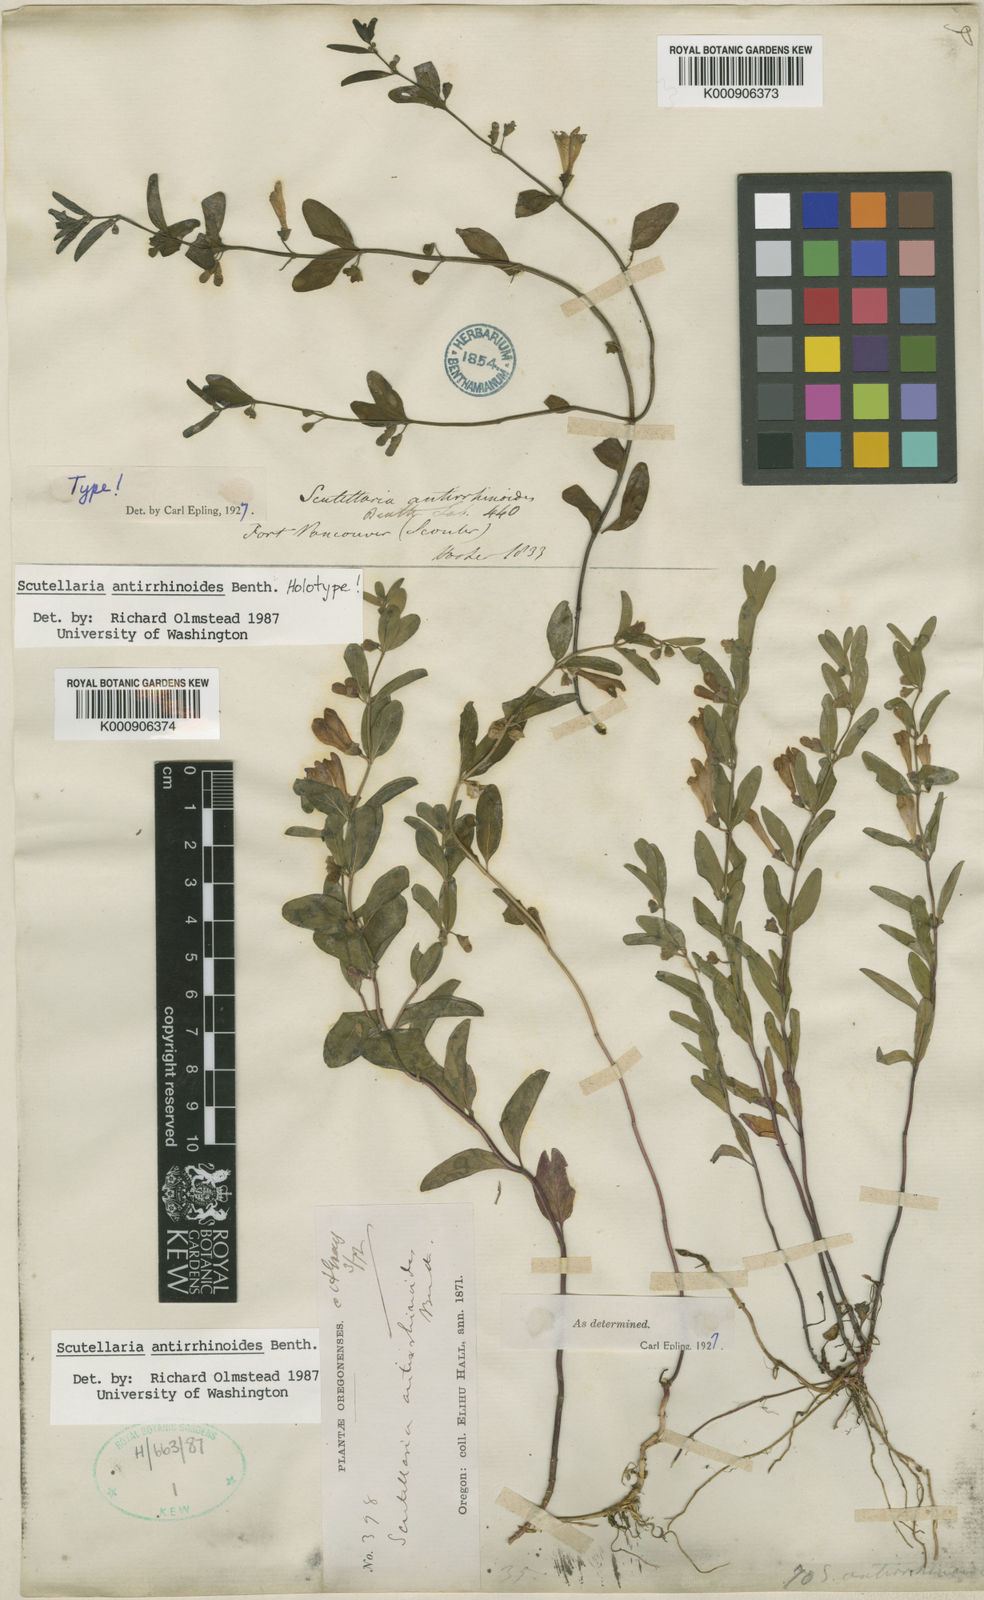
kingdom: Plantae
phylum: Tracheophyta
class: Magnoliopsida
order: Lamiales
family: Lamiaceae
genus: Scutellaria
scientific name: Scutellaria antirrhinoides
